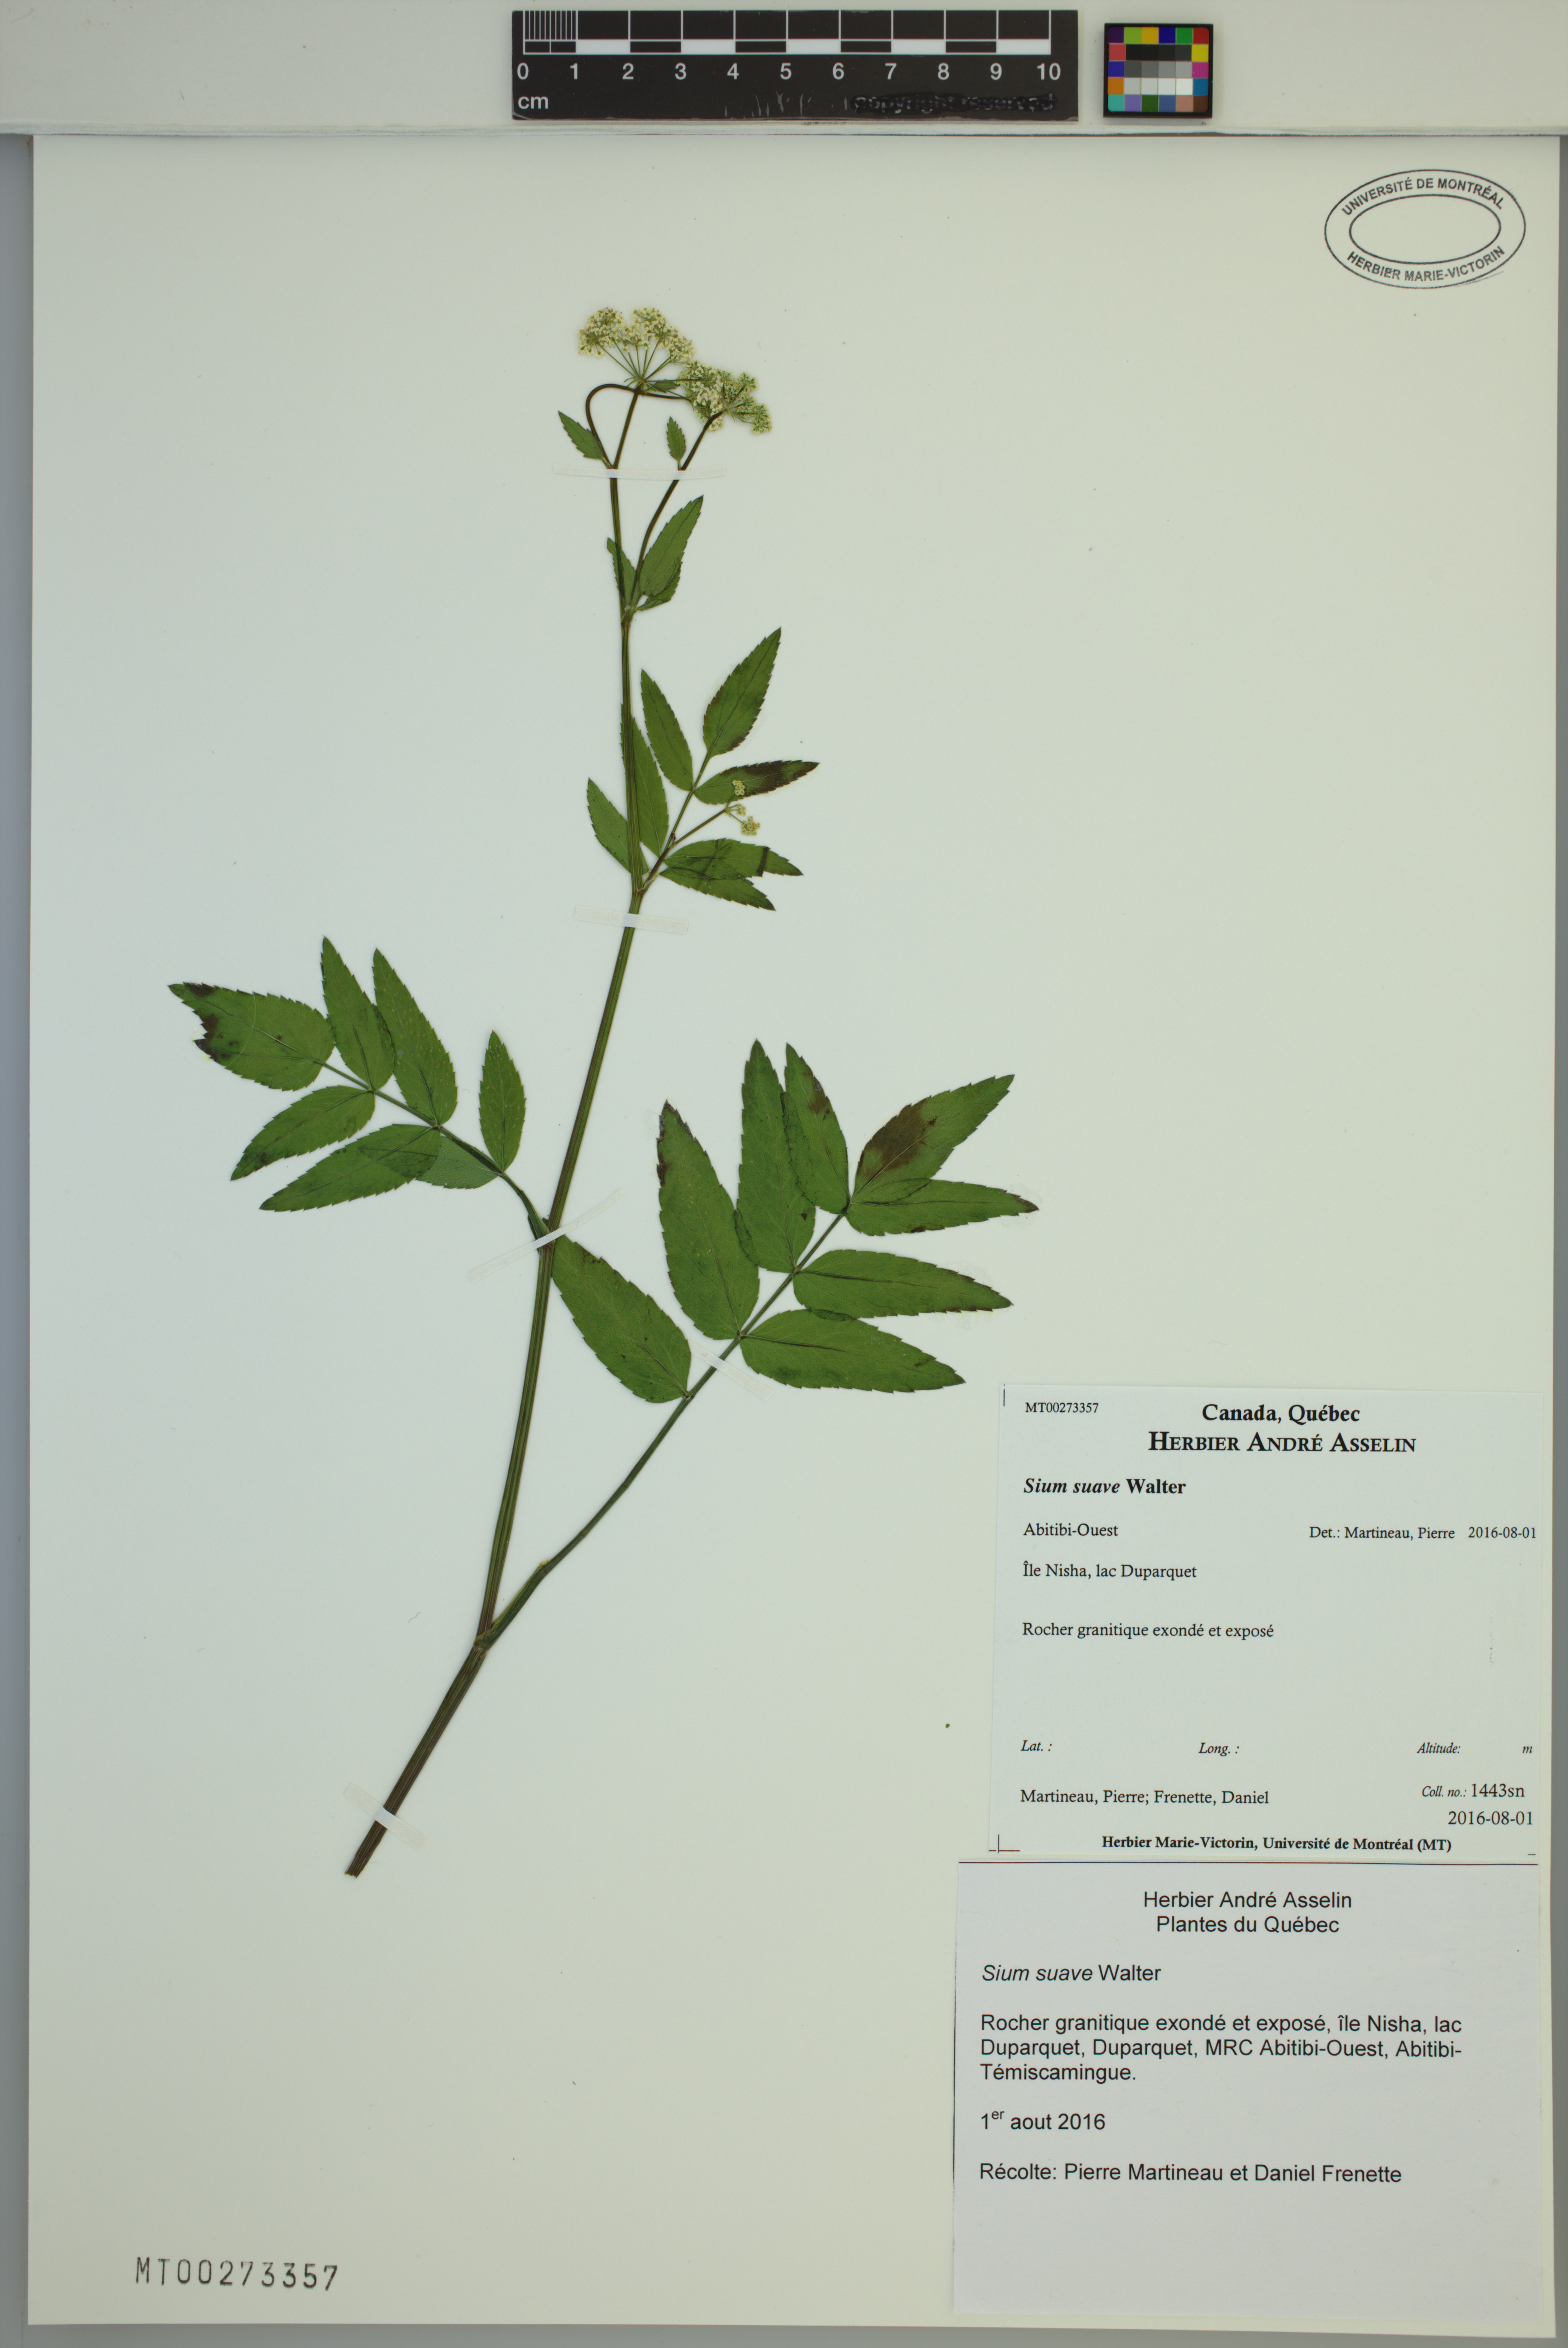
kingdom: Plantae
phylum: Tracheophyta
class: Magnoliopsida
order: Apiales
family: Apiaceae
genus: Sium
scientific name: Sium suave
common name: Hemlock water-parsnip
